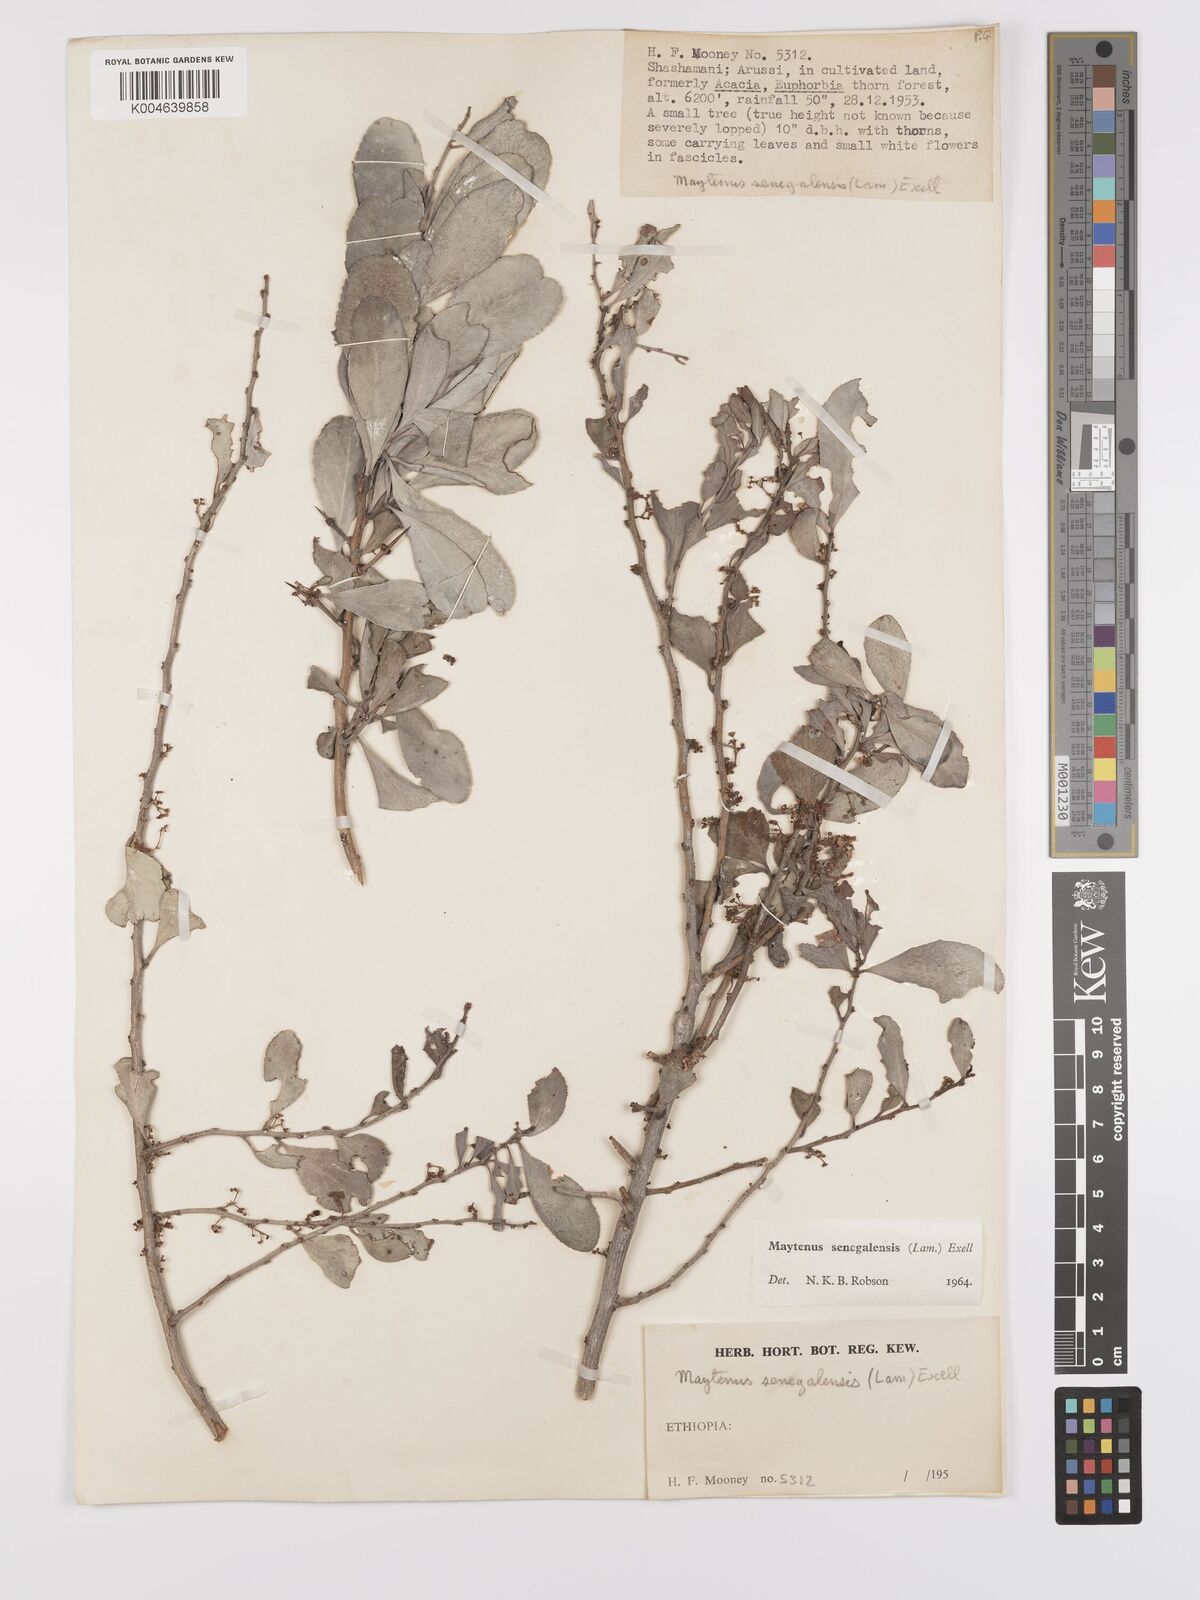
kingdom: Plantae
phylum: Tracheophyta
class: Magnoliopsida
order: Celastrales
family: Celastraceae
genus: Gymnosporia
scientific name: Gymnosporia senegalensis
